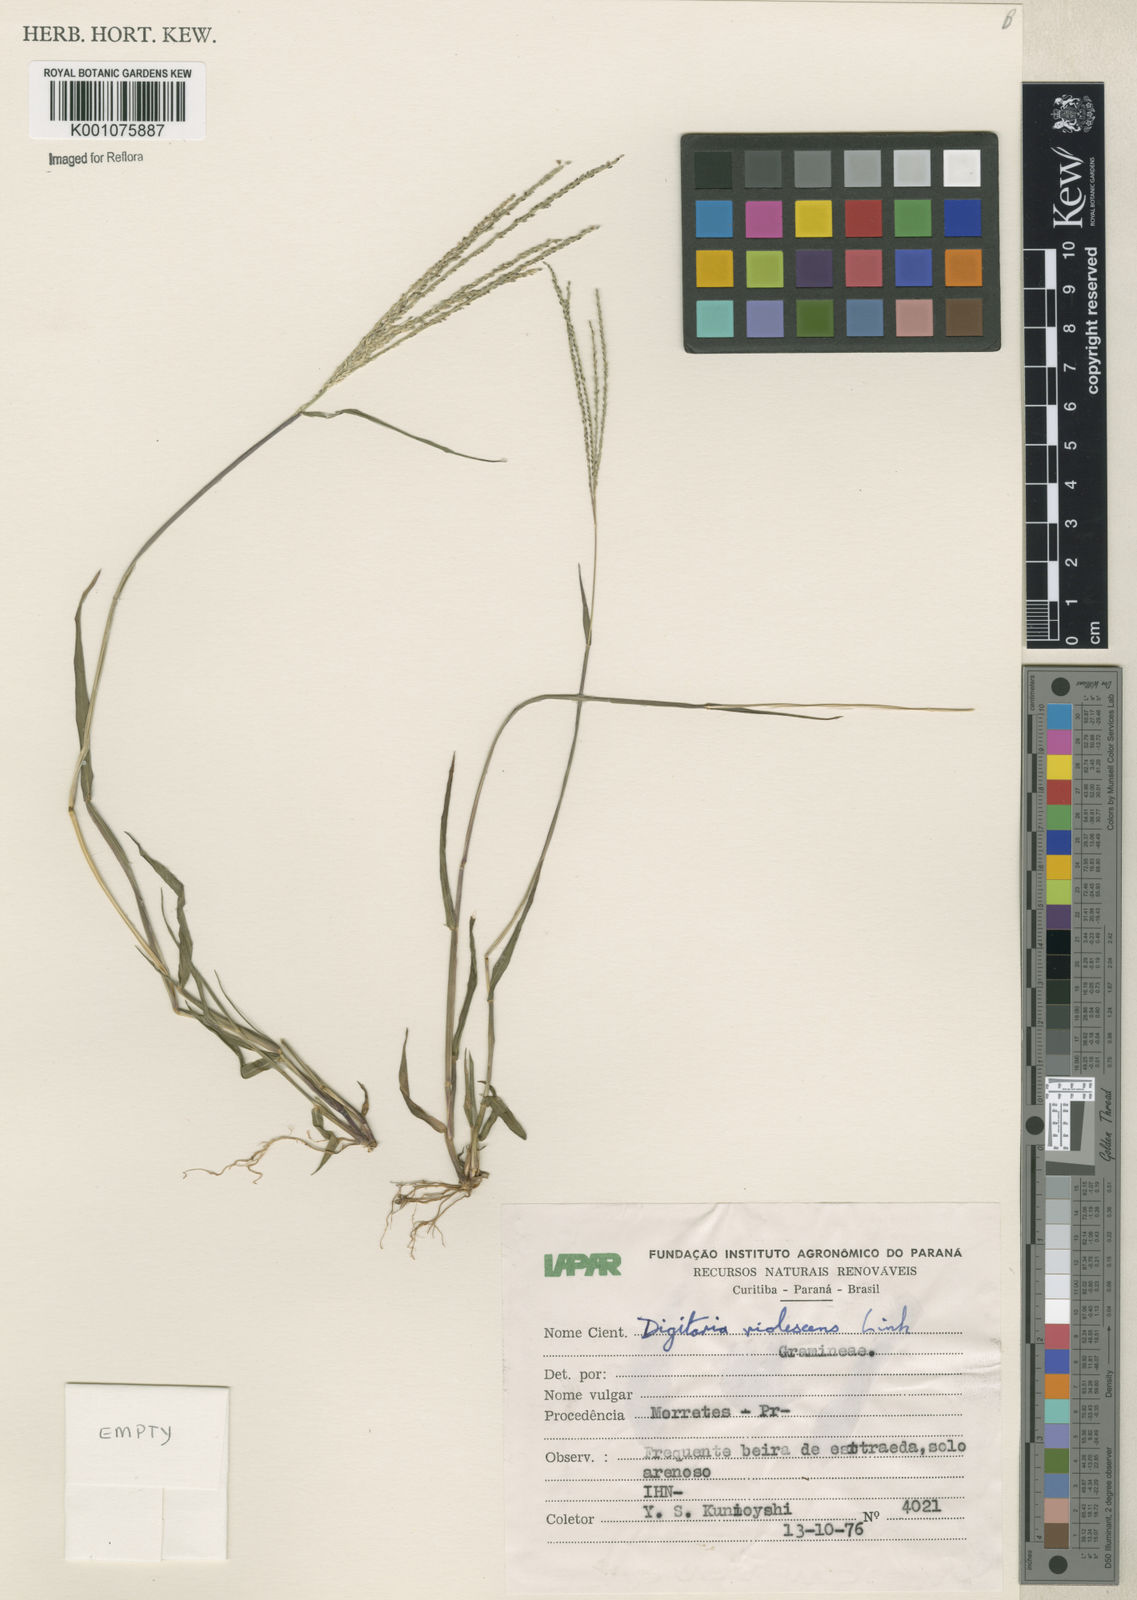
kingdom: Plantae
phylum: Tracheophyta
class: Liliopsida
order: Poales
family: Poaceae
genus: Digitaria
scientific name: Digitaria violascens
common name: Violet crabgrass
